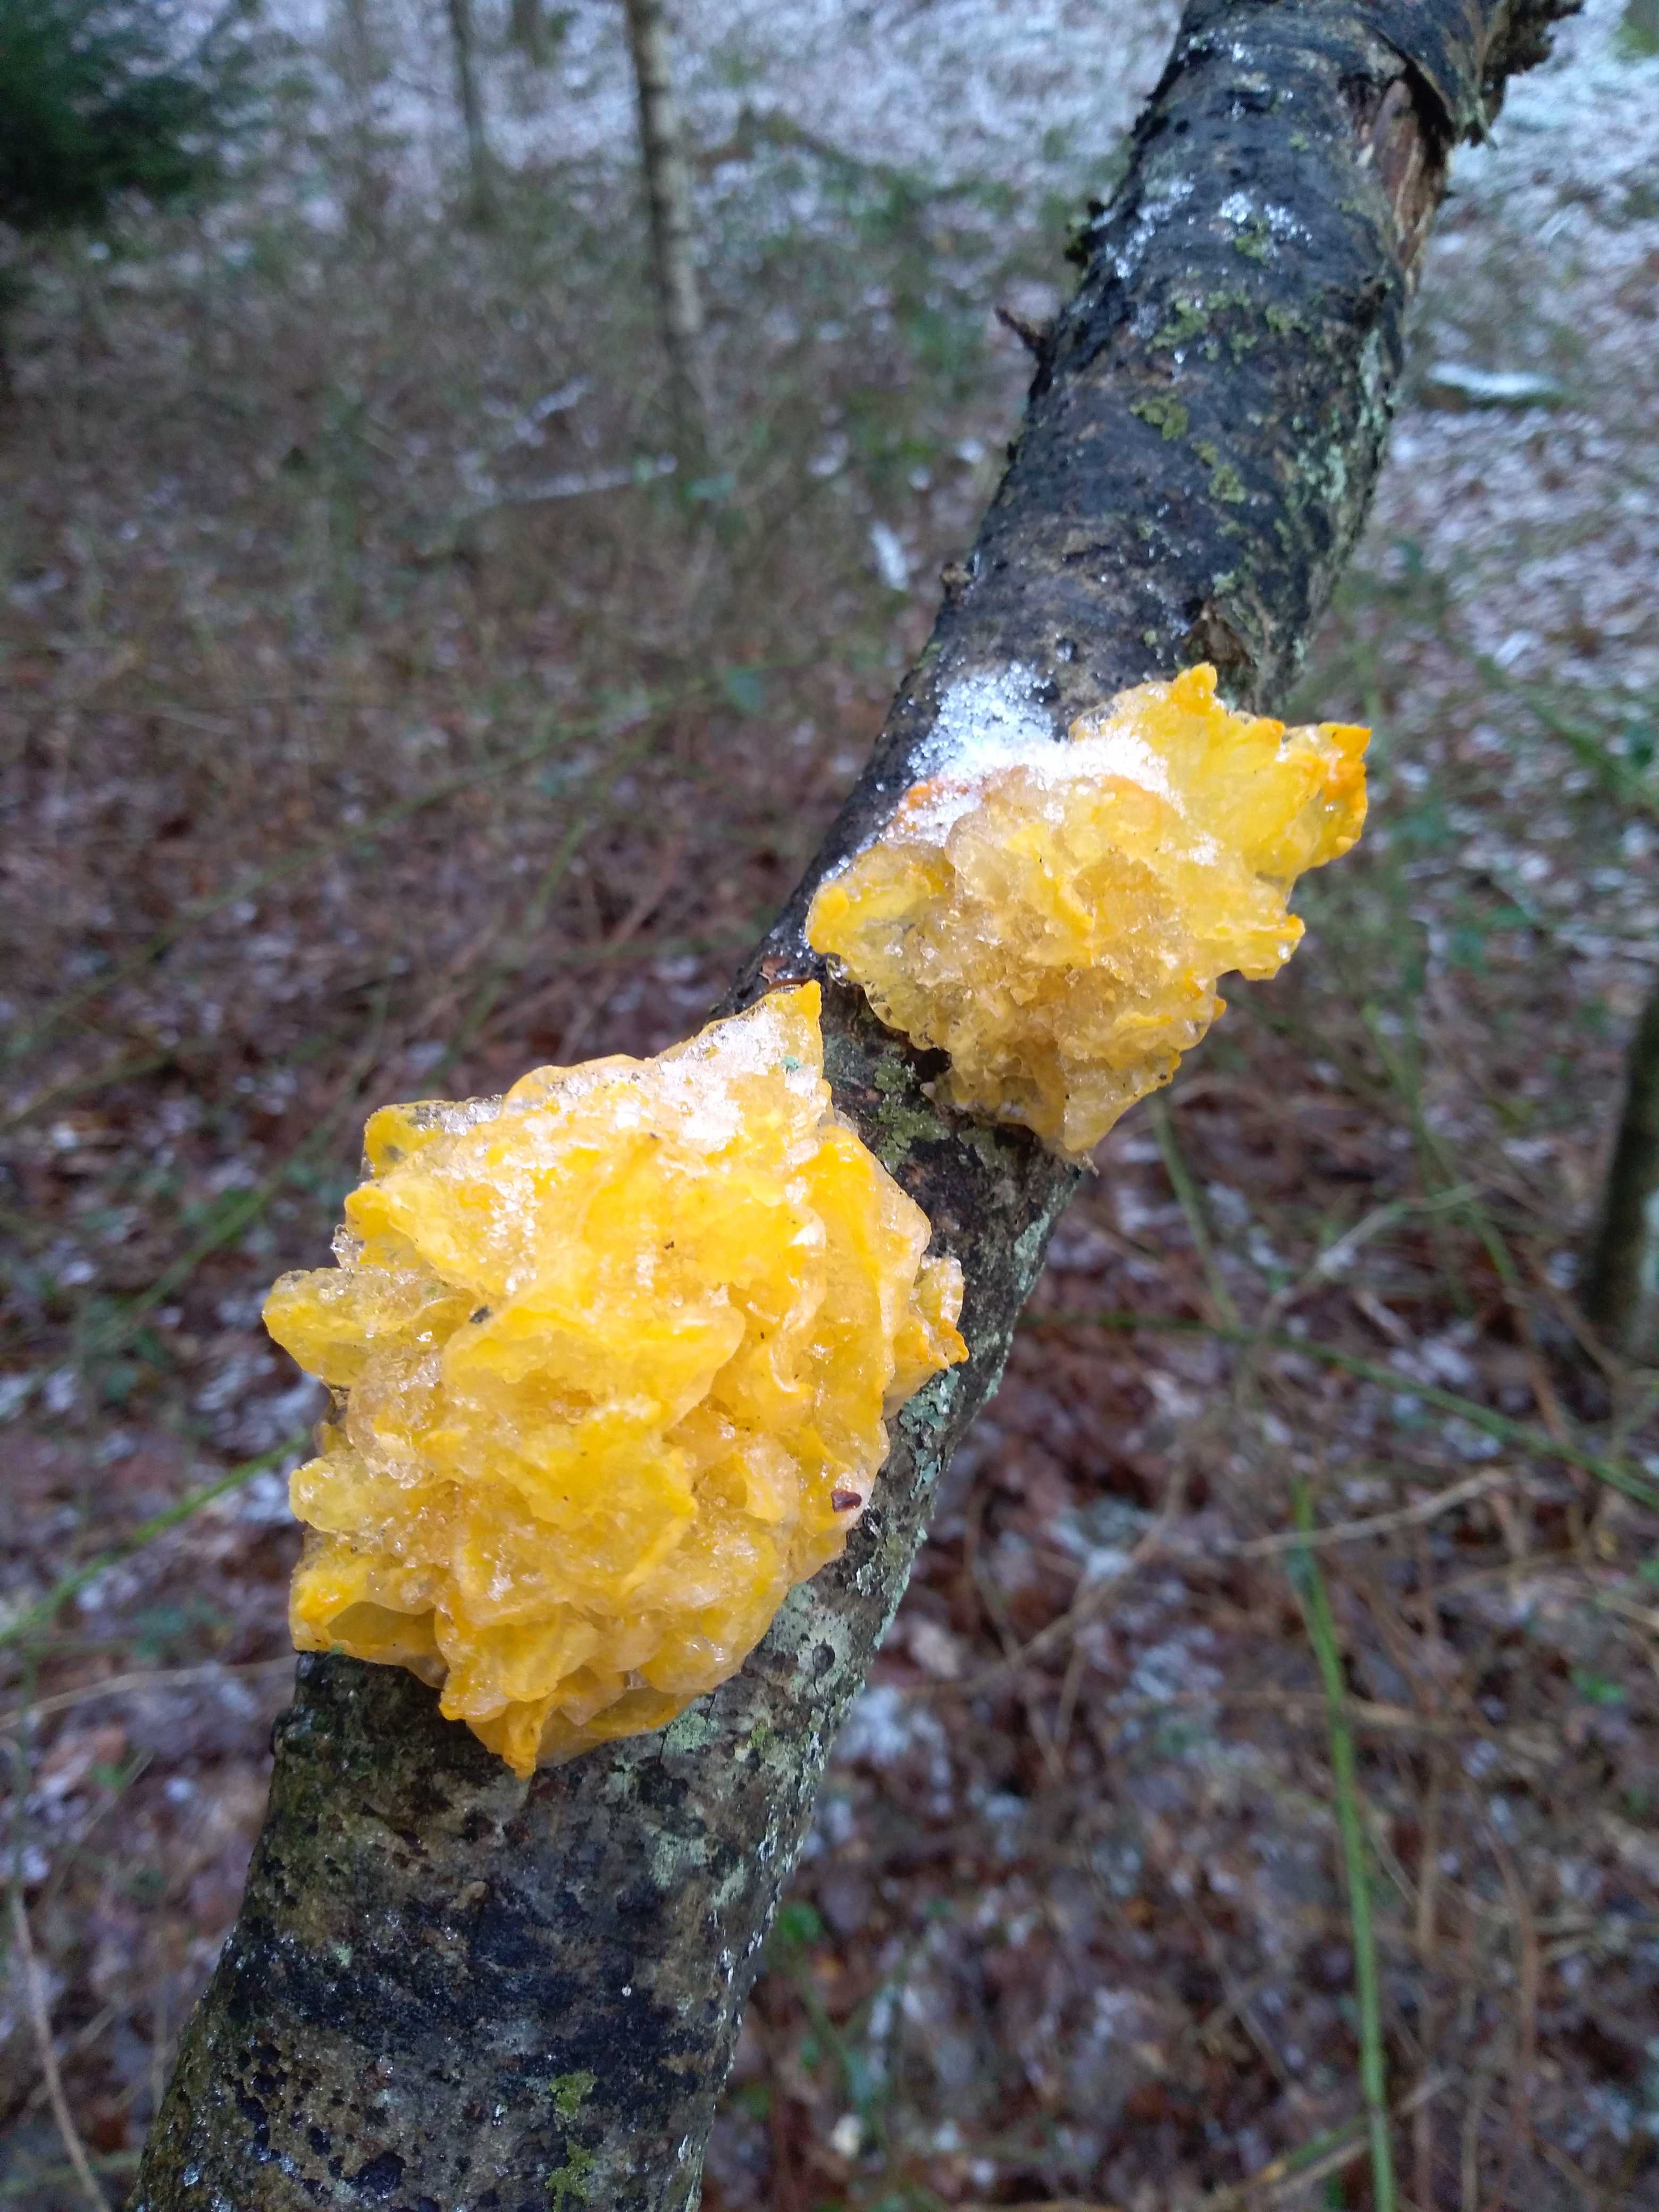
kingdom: Fungi
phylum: Basidiomycota
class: Tremellomycetes
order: Tremellales
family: Tremellaceae
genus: Tremella
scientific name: Tremella mesenterica
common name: gul bævresvamp
